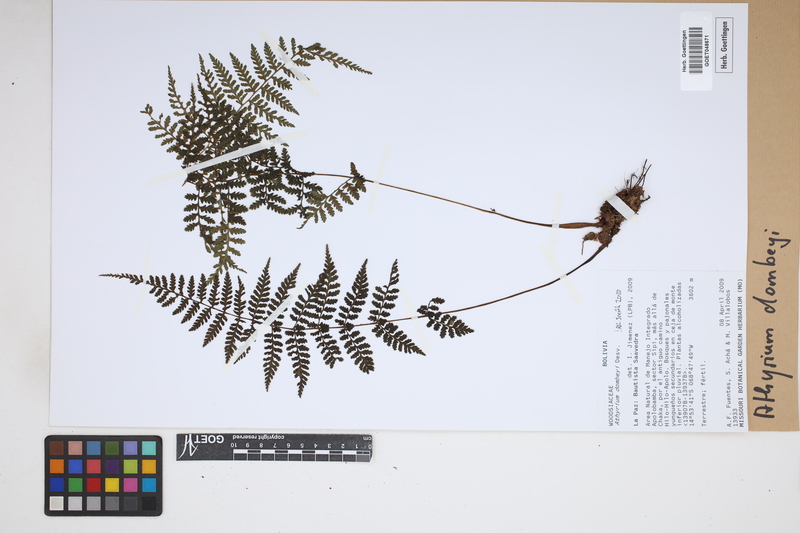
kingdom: Plantae
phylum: Tracheophyta
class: Polypodiopsida
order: Polypodiales
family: Athyriaceae
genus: Athyrium
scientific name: Athyrium dombeyi
